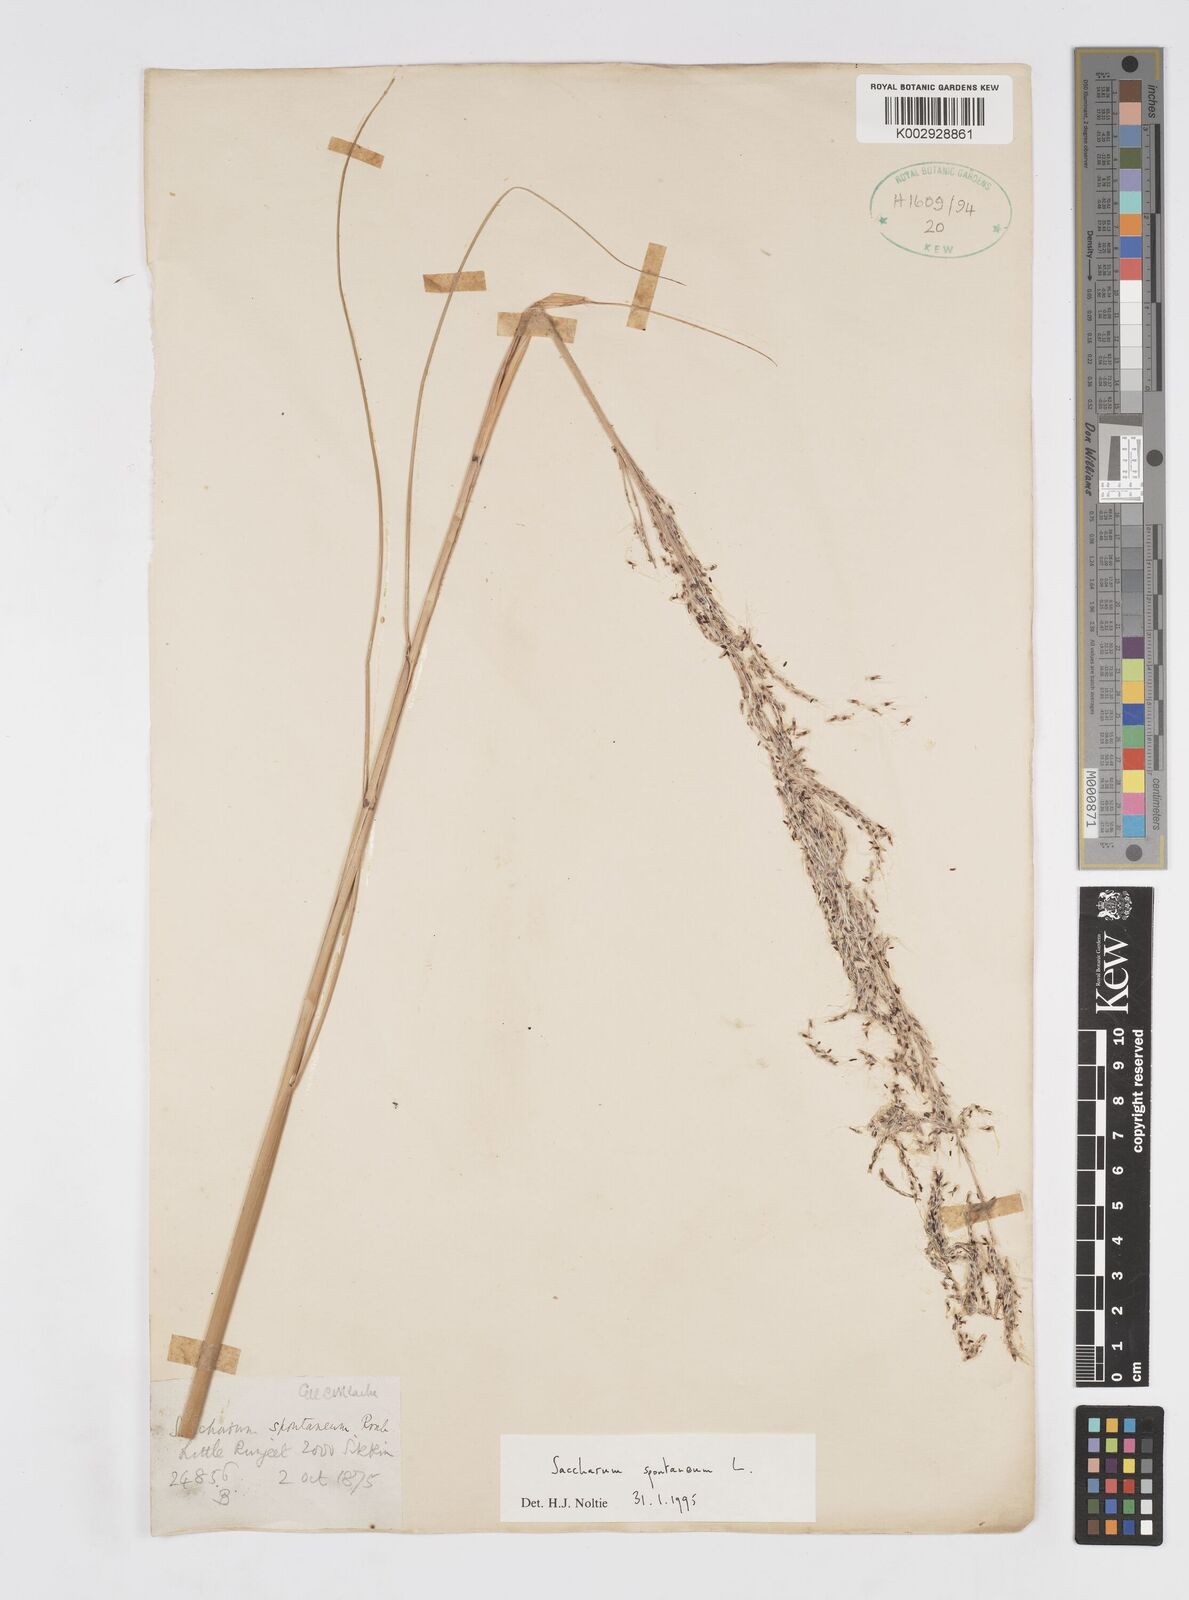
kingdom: Plantae
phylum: Tracheophyta
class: Liliopsida
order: Poales
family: Poaceae
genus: Saccharum
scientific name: Saccharum spontaneum
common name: Wild sugarcane
